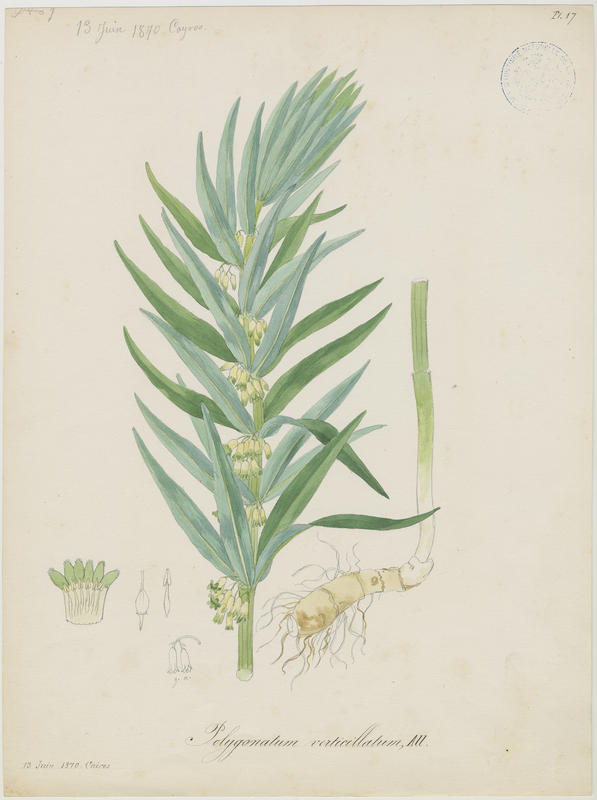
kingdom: Plantae
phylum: Tracheophyta
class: Liliopsida
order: Asparagales
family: Asparagaceae
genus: Polygonatum
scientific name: Polygonatum verticillatum
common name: Whorled solomon's-seal
